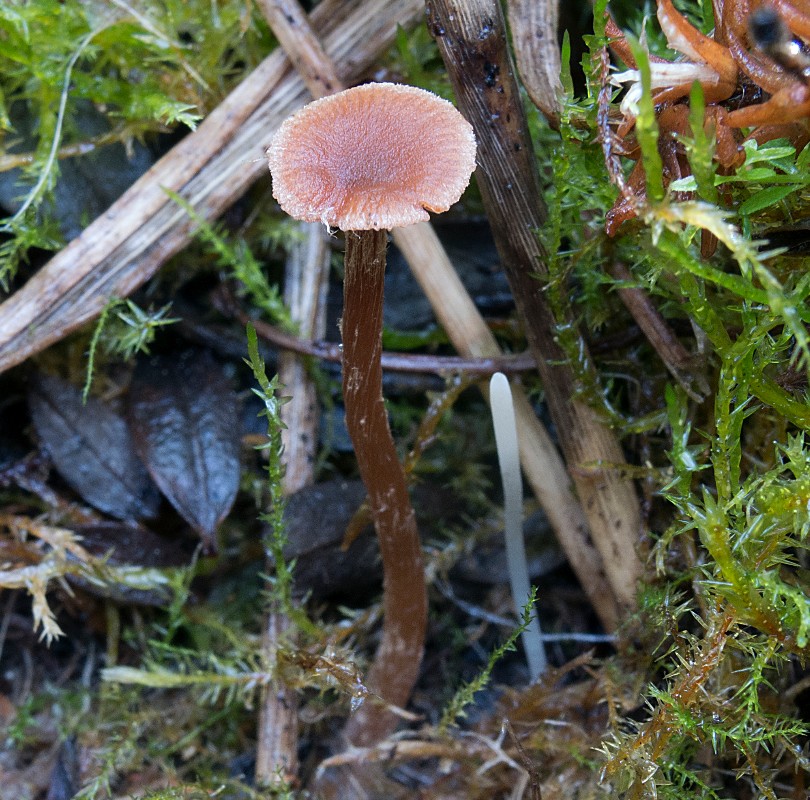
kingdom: Fungi
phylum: Basidiomycota
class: Agaricomycetes
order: Agaricales
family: Clavariaceae
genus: Clavaria
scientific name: Clavaria falcata
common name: hvid køllesvamp
